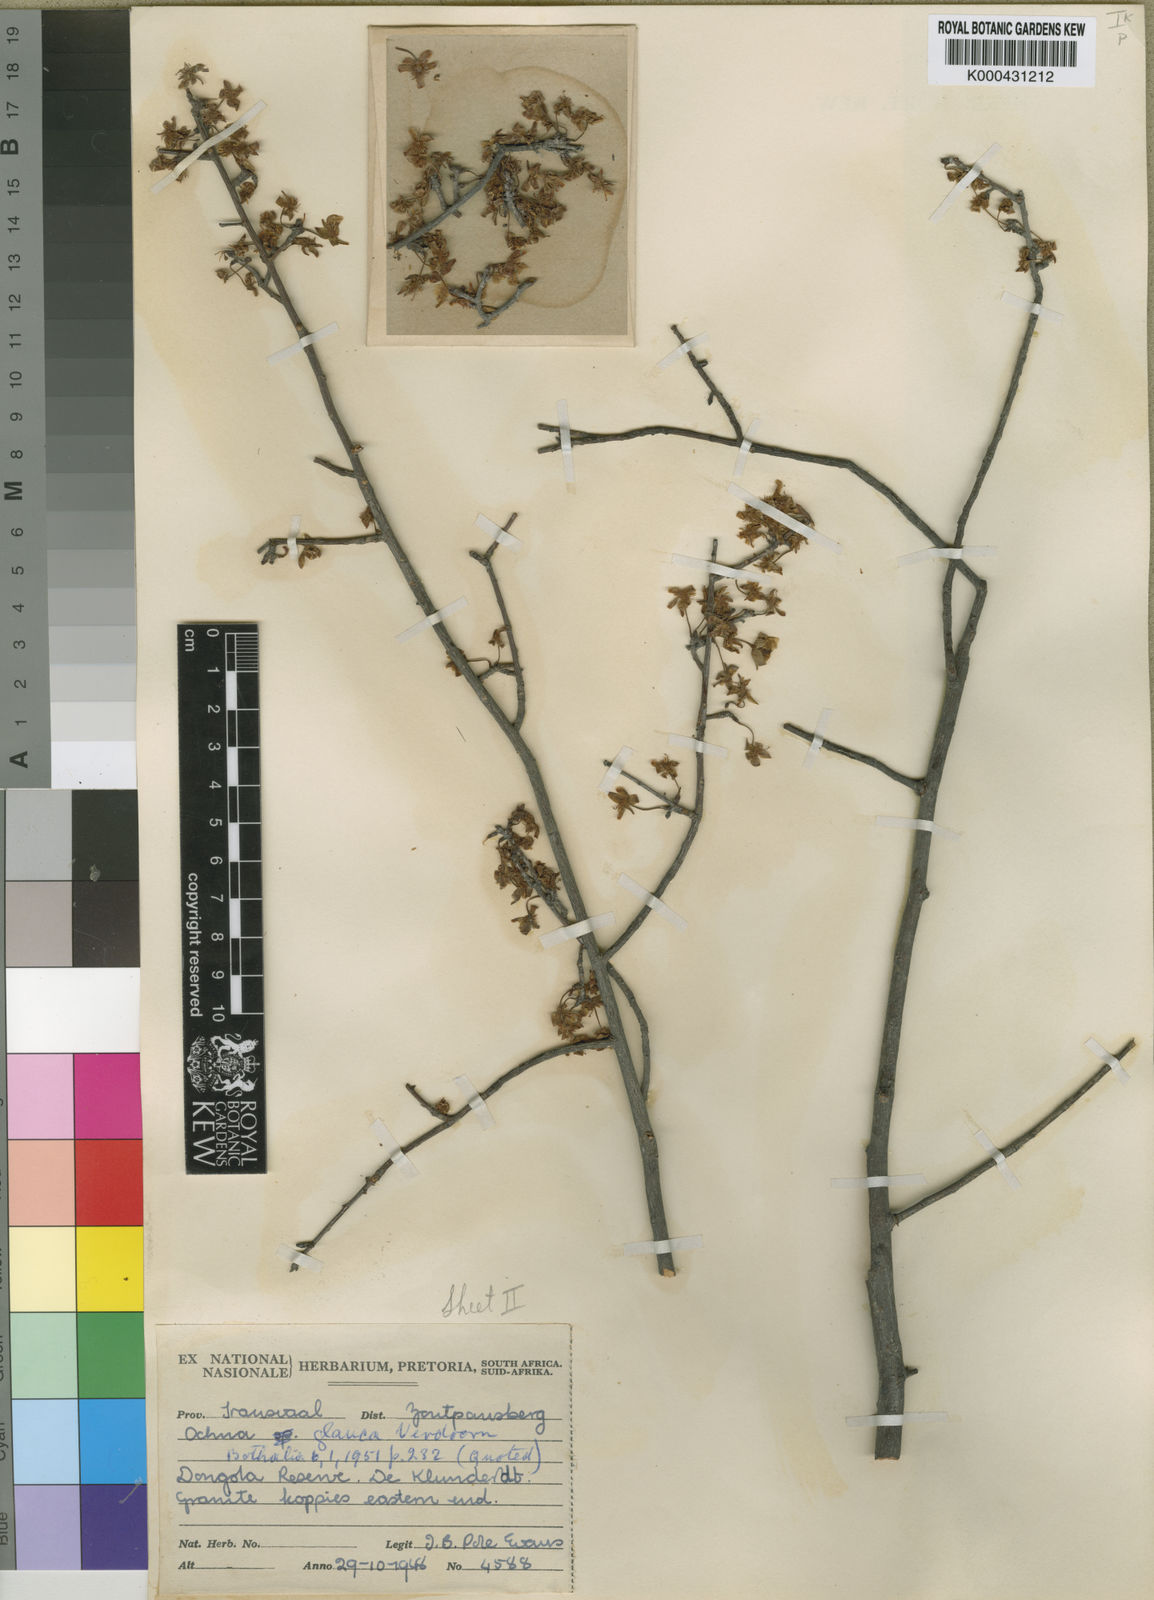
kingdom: Plantae
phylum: Tracheophyta
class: Magnoliopsida
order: Malpighiales
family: Ochnaceae
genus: Ochna
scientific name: Ochna glauca
